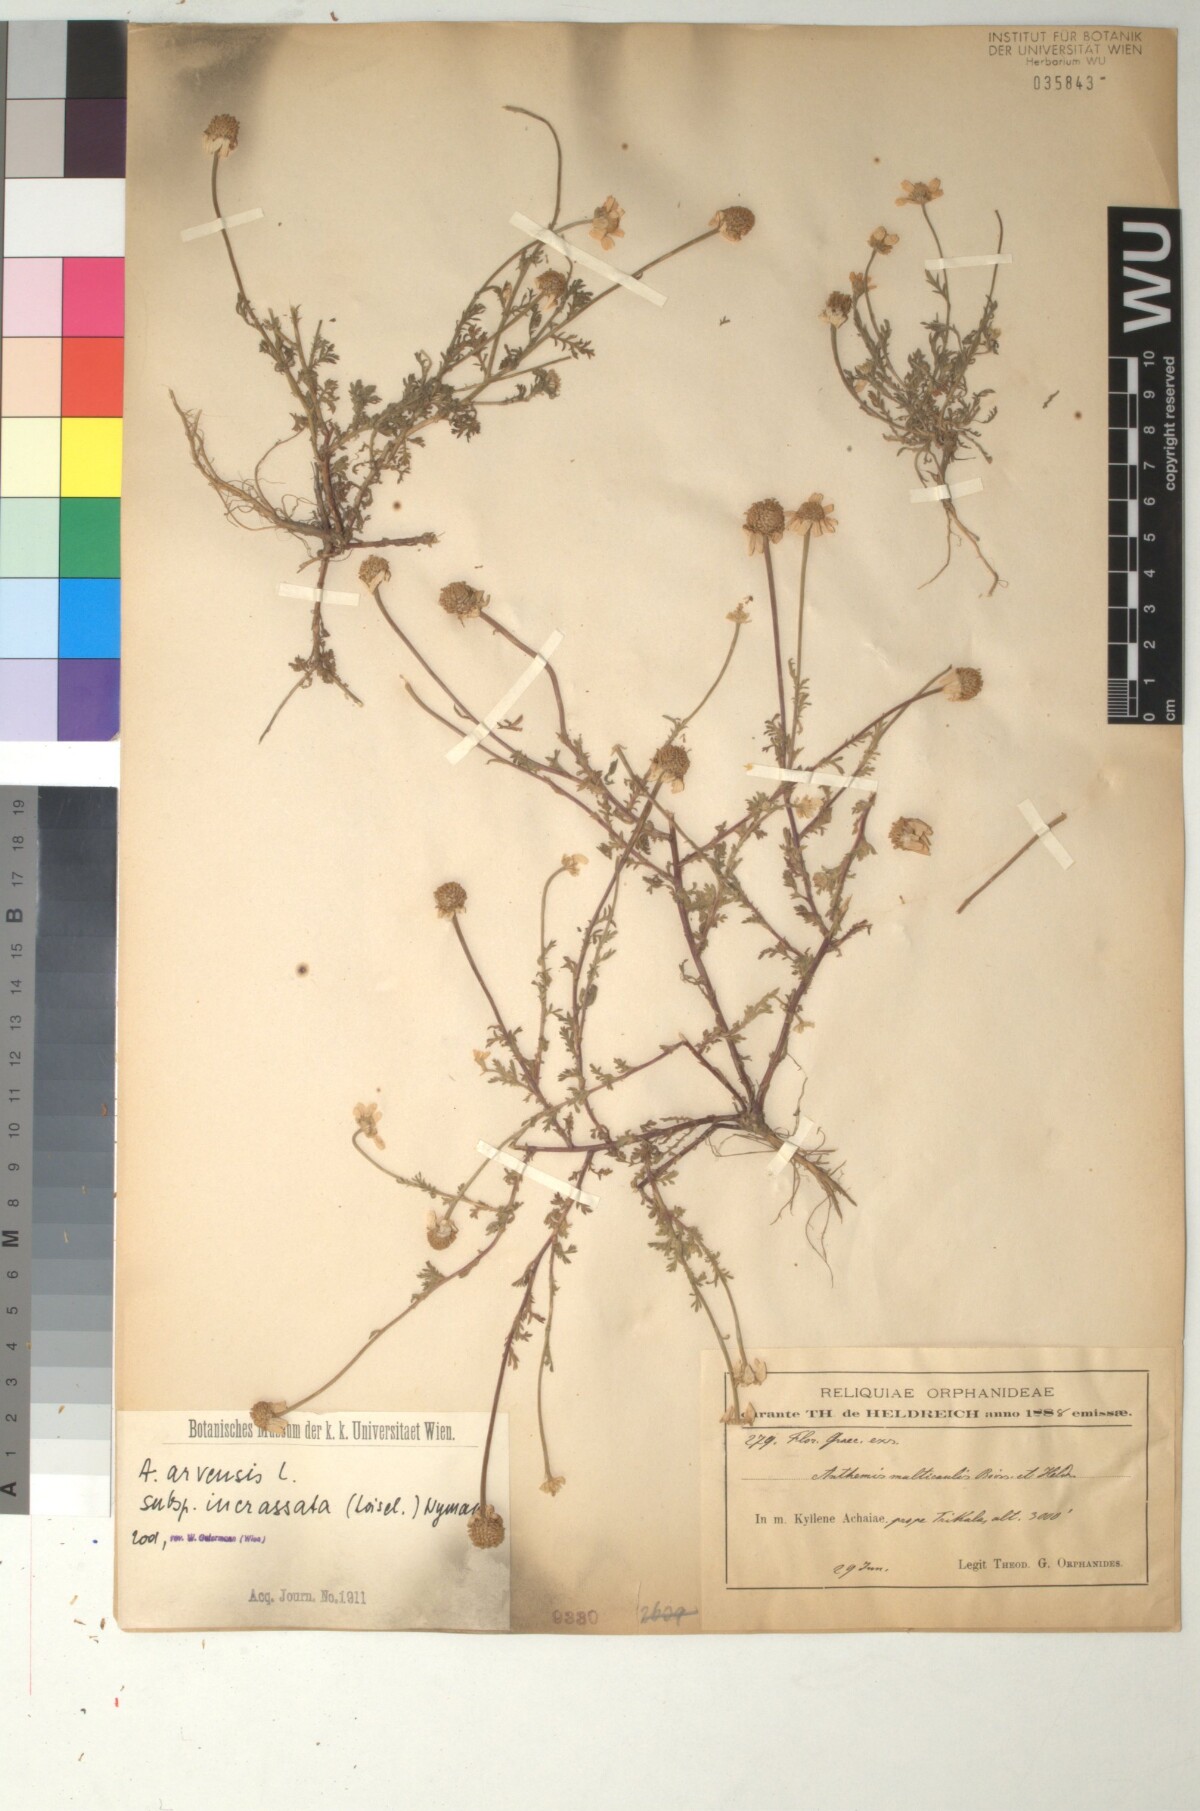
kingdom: Plantae
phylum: Tracheophyta
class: Magnoliopsida
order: Asterales
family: Asteraceae
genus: Anthemis
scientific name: Anthemis arvensis
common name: Corn chamomile
